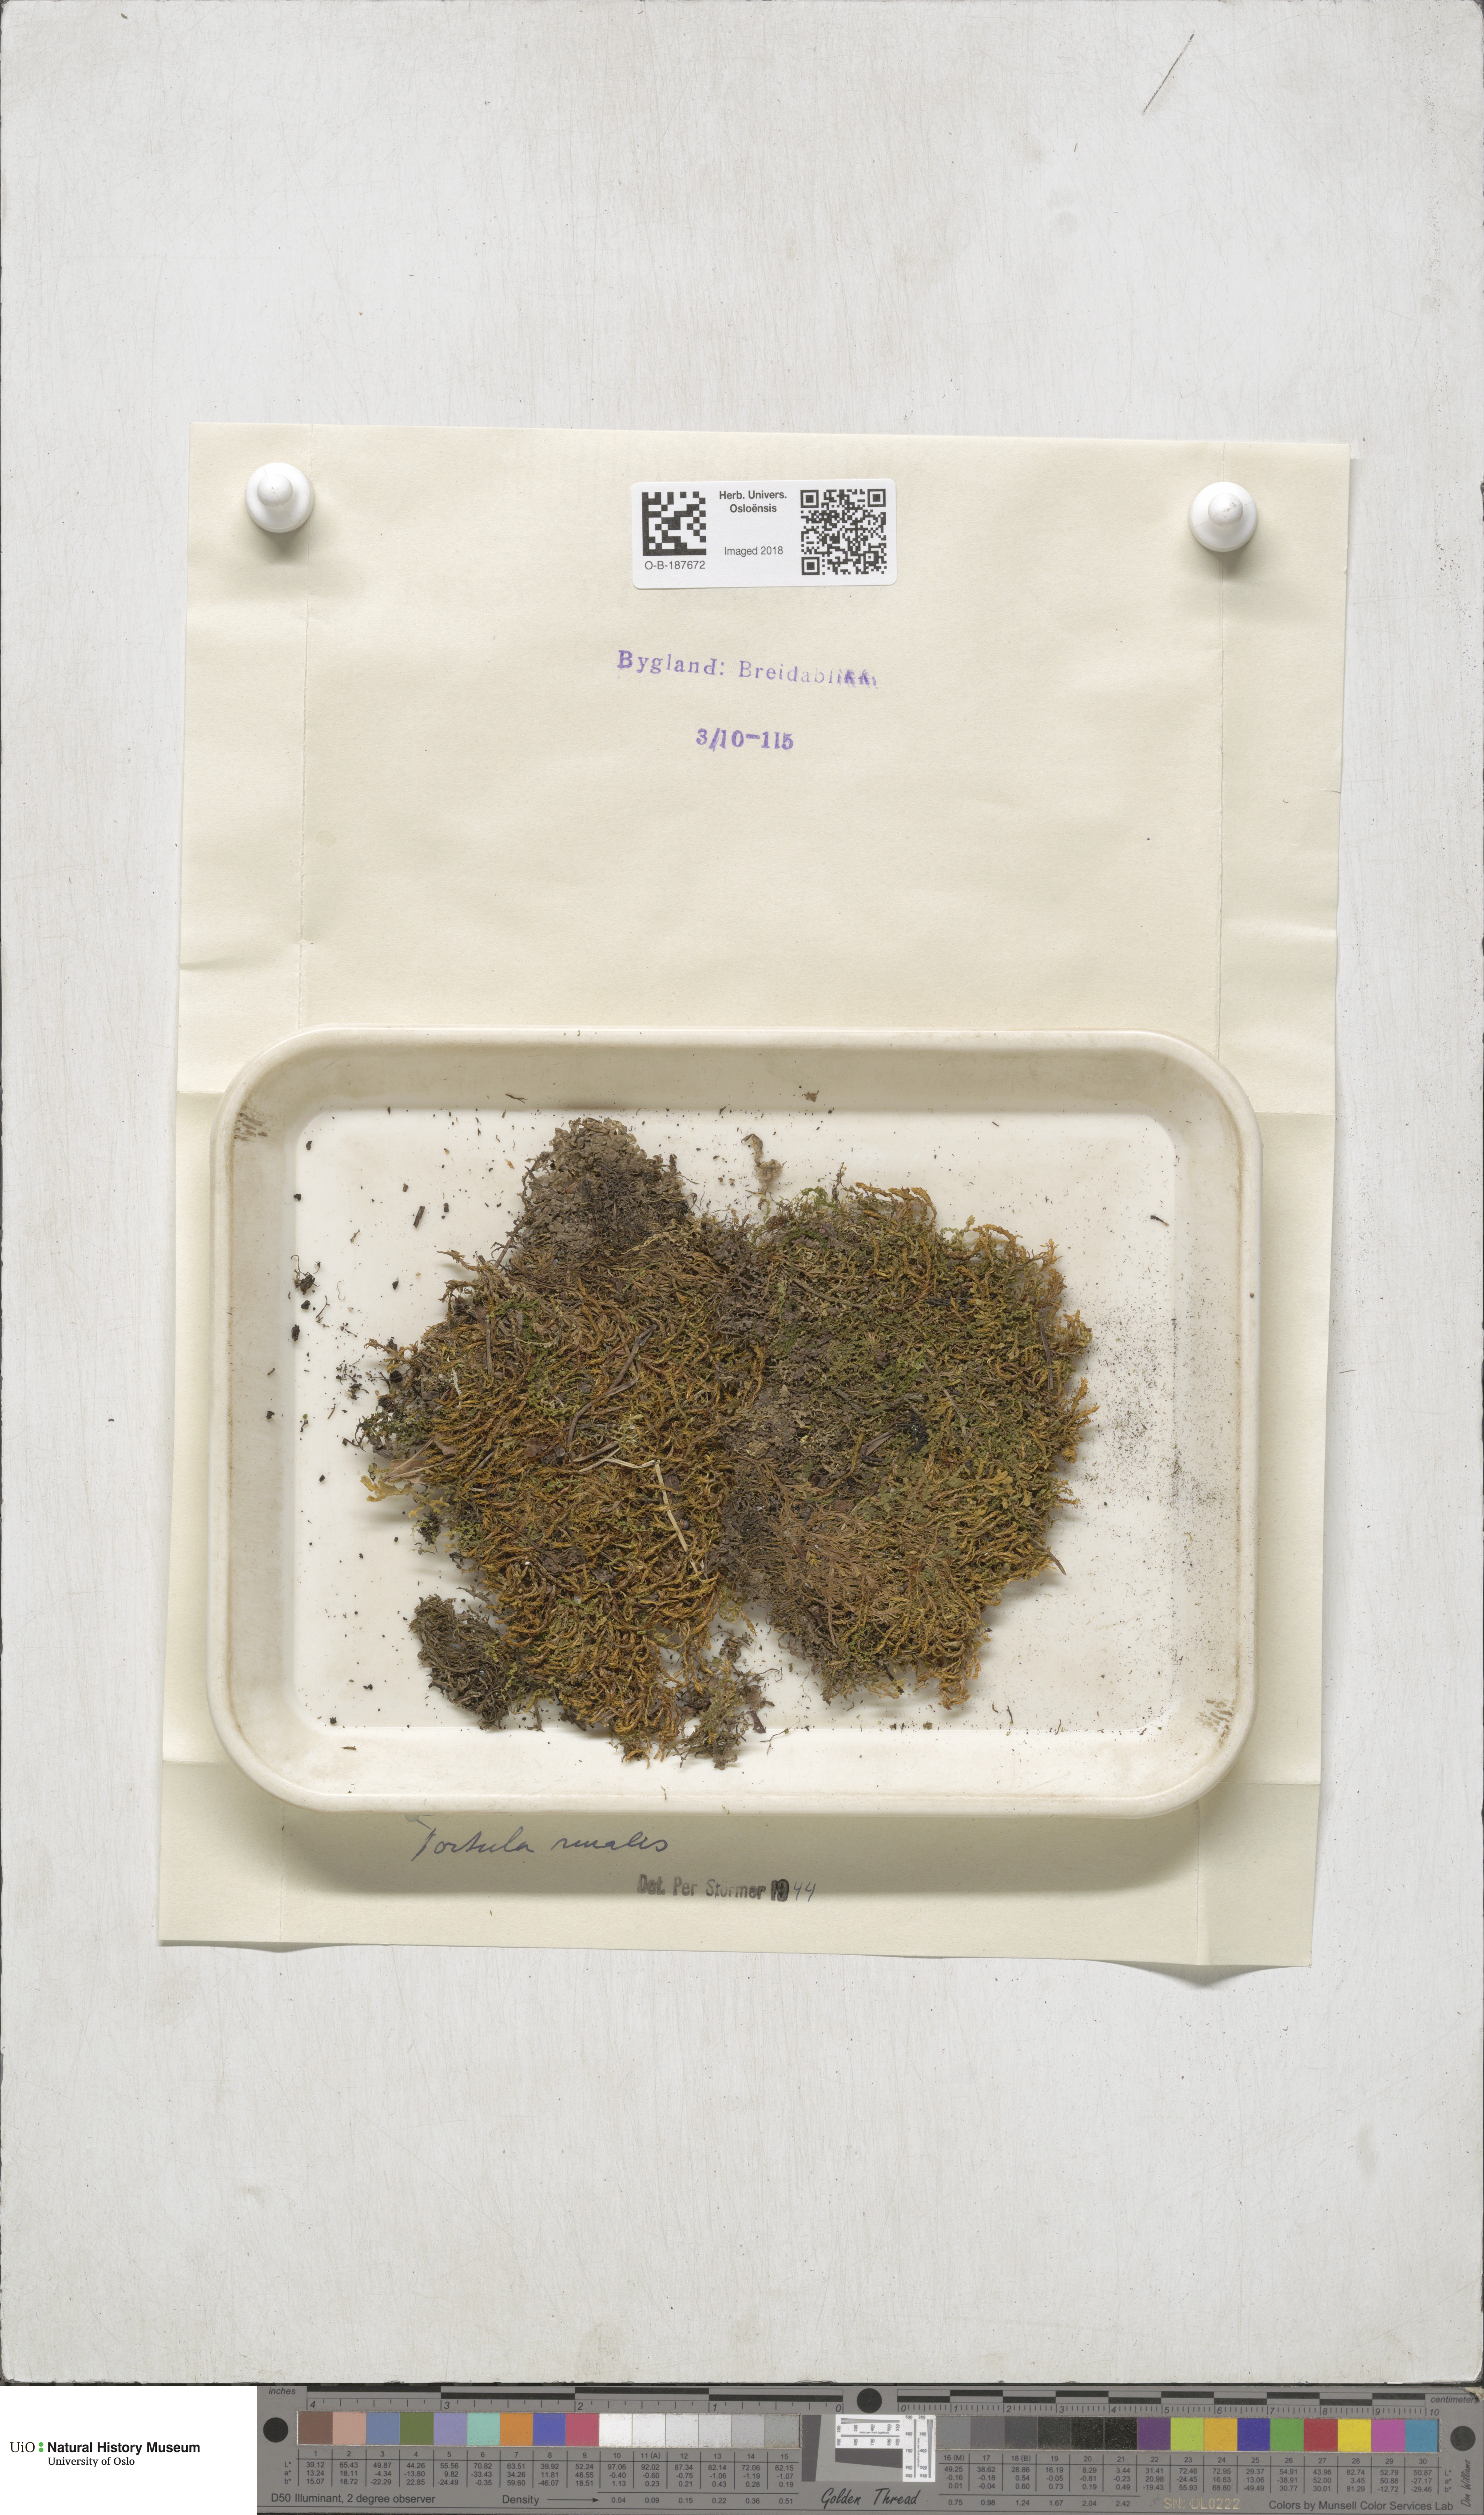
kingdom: Plantae
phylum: Bryophyta
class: Bryopsida
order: Pottiales
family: Pottiaceae
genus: Syntrichia
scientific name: Syntrichia ruralis
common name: Sidewalk screw moss
